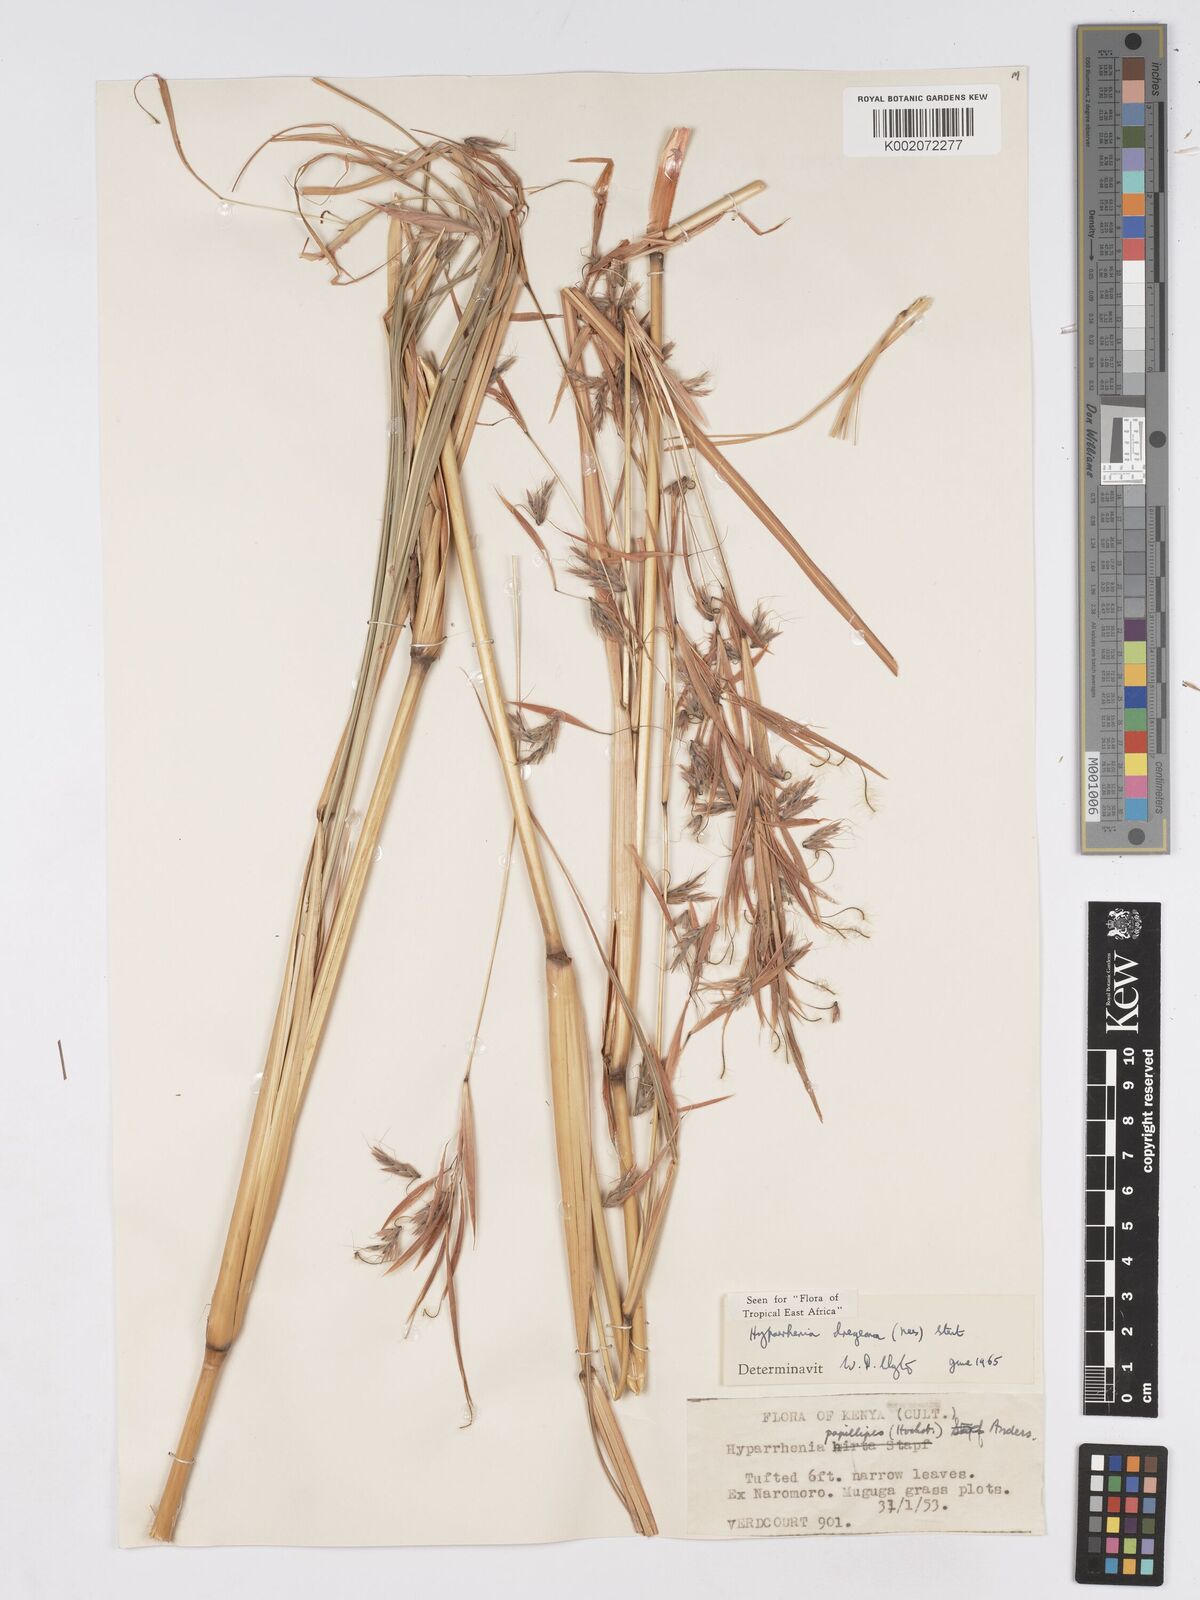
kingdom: Plantae
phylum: Tracheophyta
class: Liliopsida
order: Poales
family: Poaceae
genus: Hyparrhenia
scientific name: Hyparrhenia dregeana
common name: Silky thatching grass
